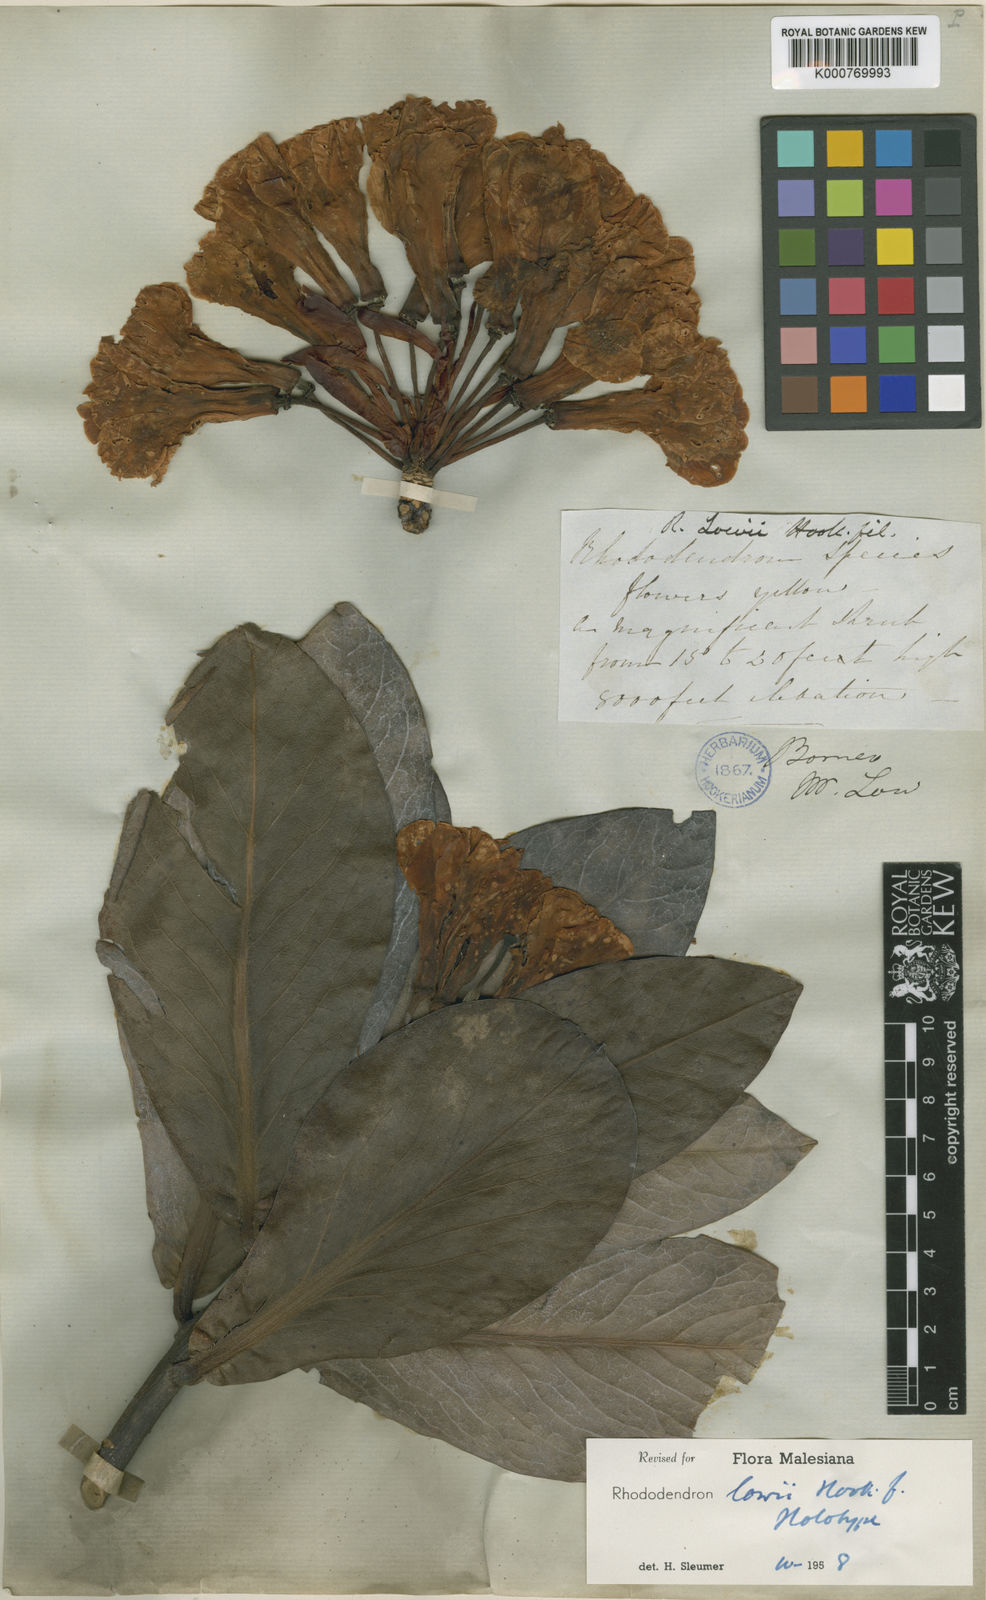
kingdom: Plantae
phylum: Tracheophyta
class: Magnoliopsida
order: Ericales
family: Ericaceae
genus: Rhododendron
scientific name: Rhododendron lowii
